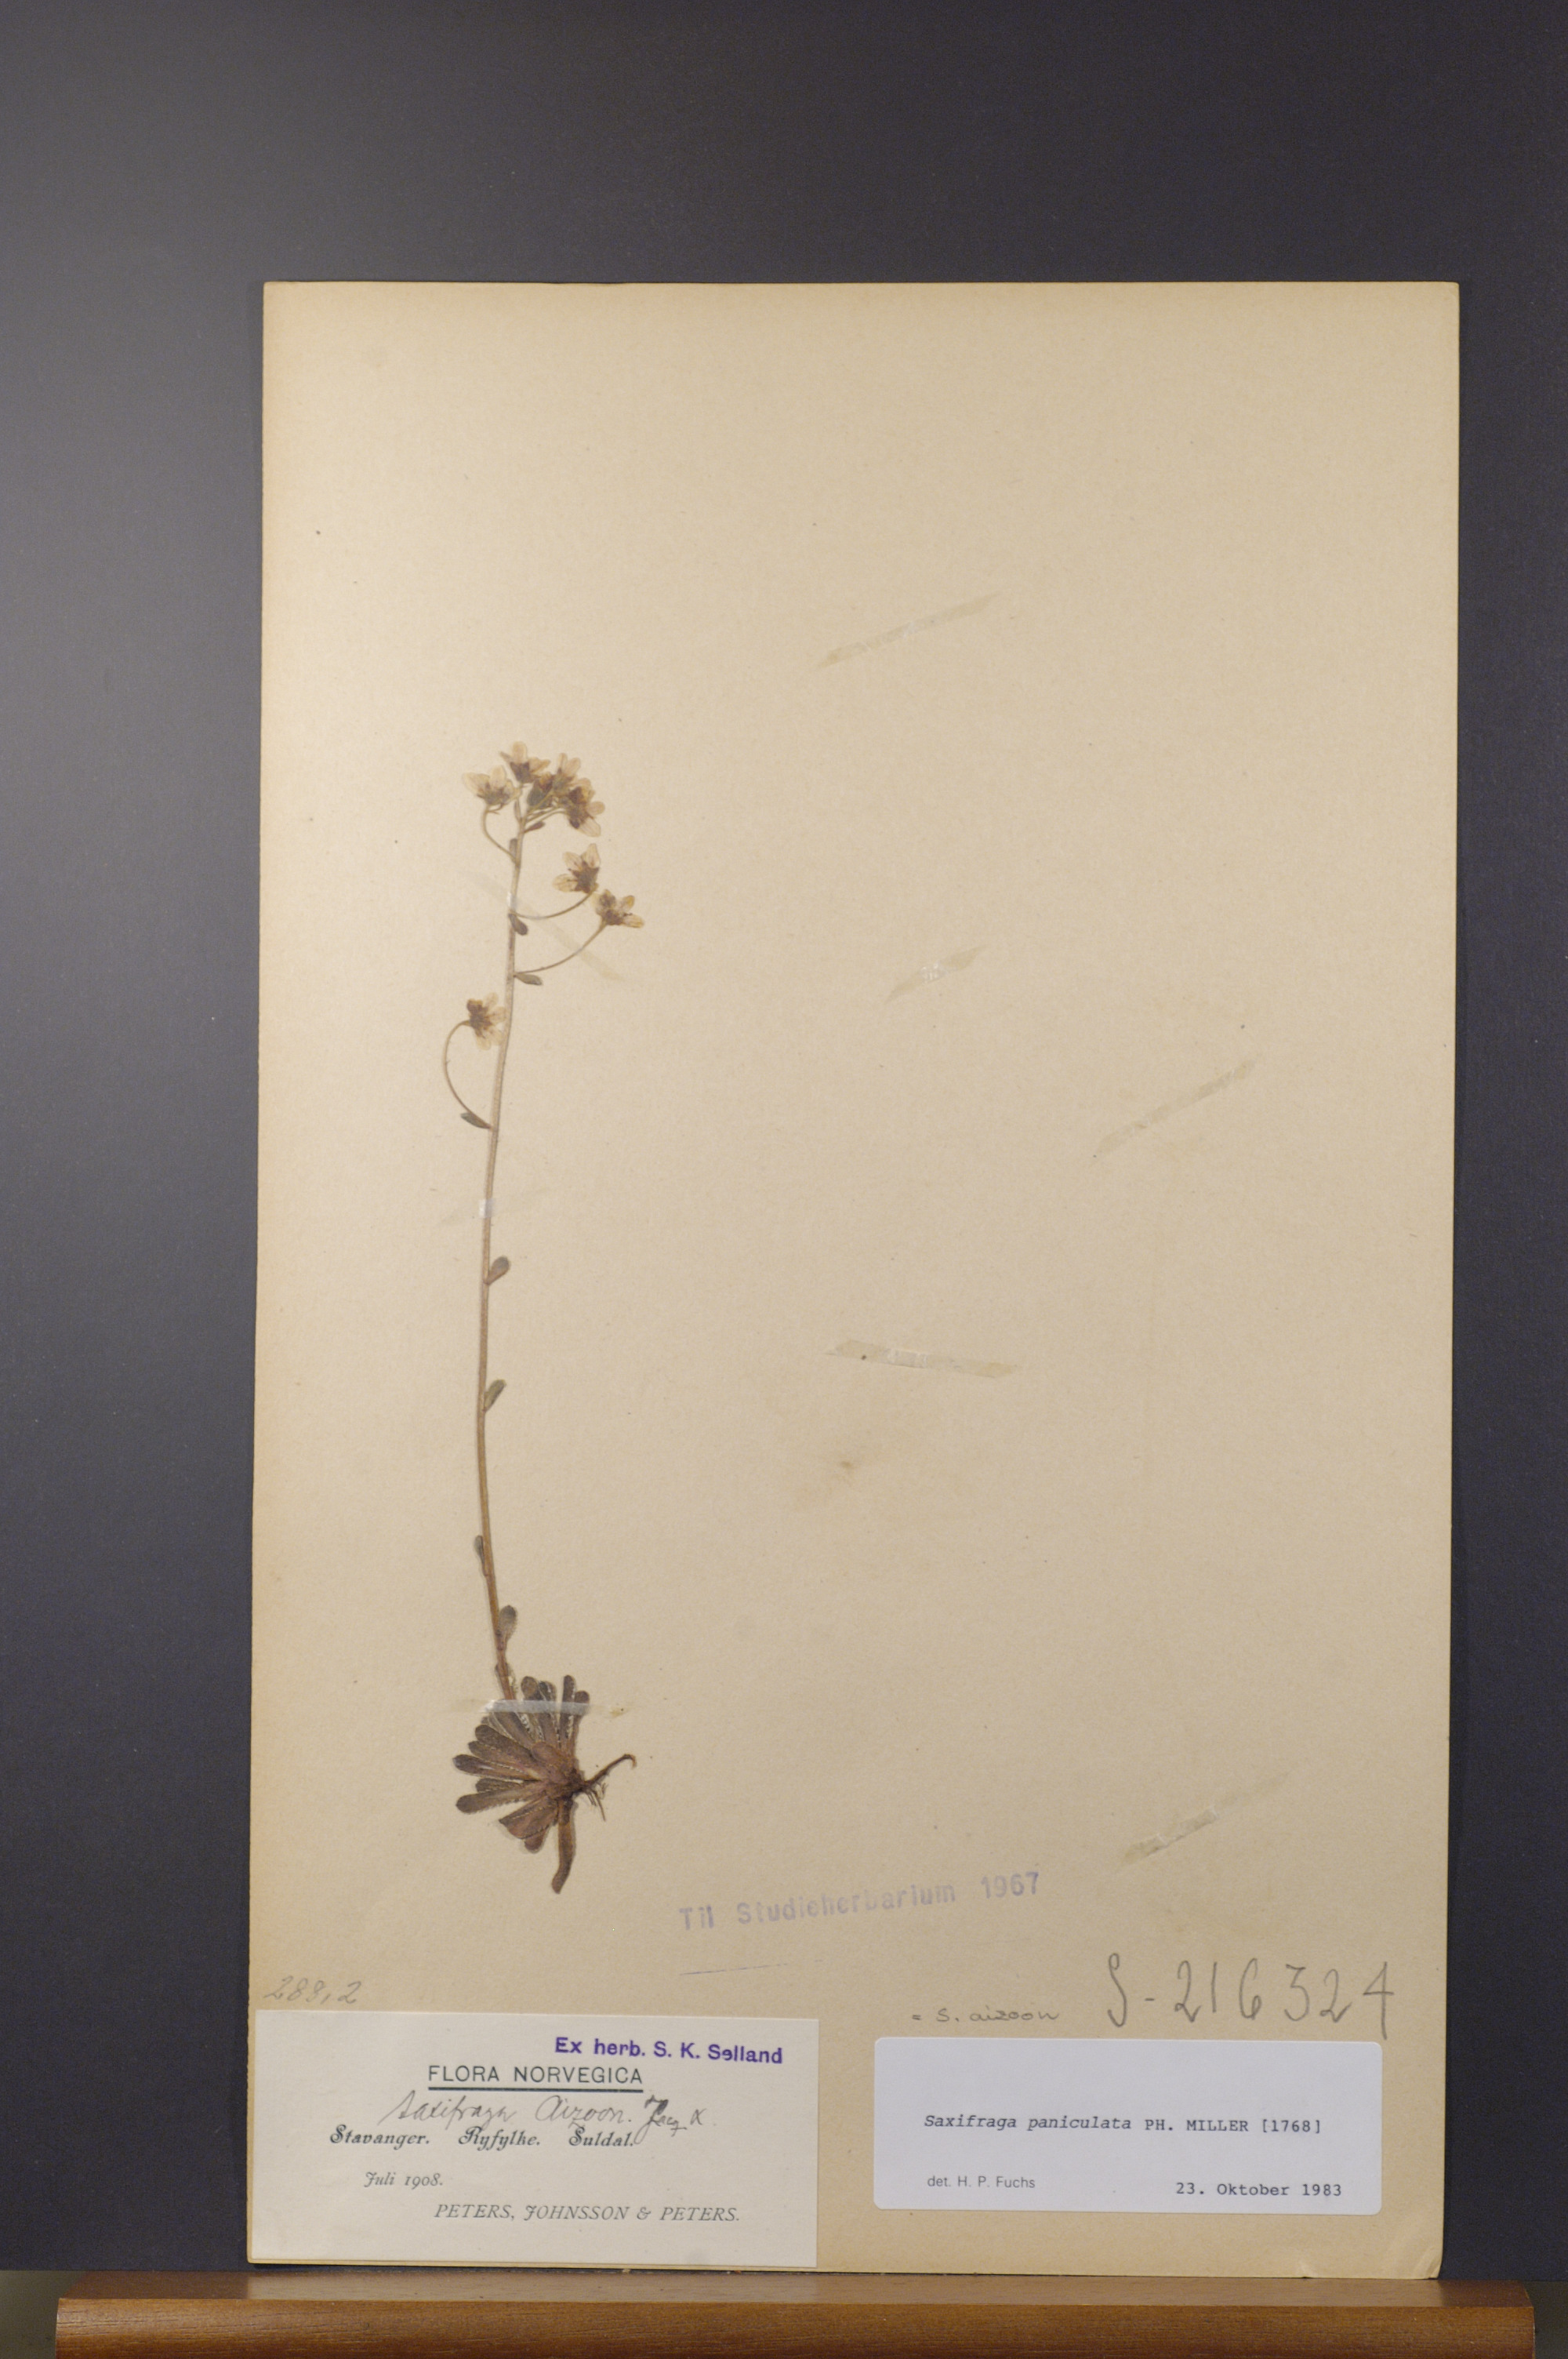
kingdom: Plantae
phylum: Tracheophyta
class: Magnoliopsida
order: Saxifragales
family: Saxifragaceae
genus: Saxifraga
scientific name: Saxifraga paniculata
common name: Livelong saxifrage
